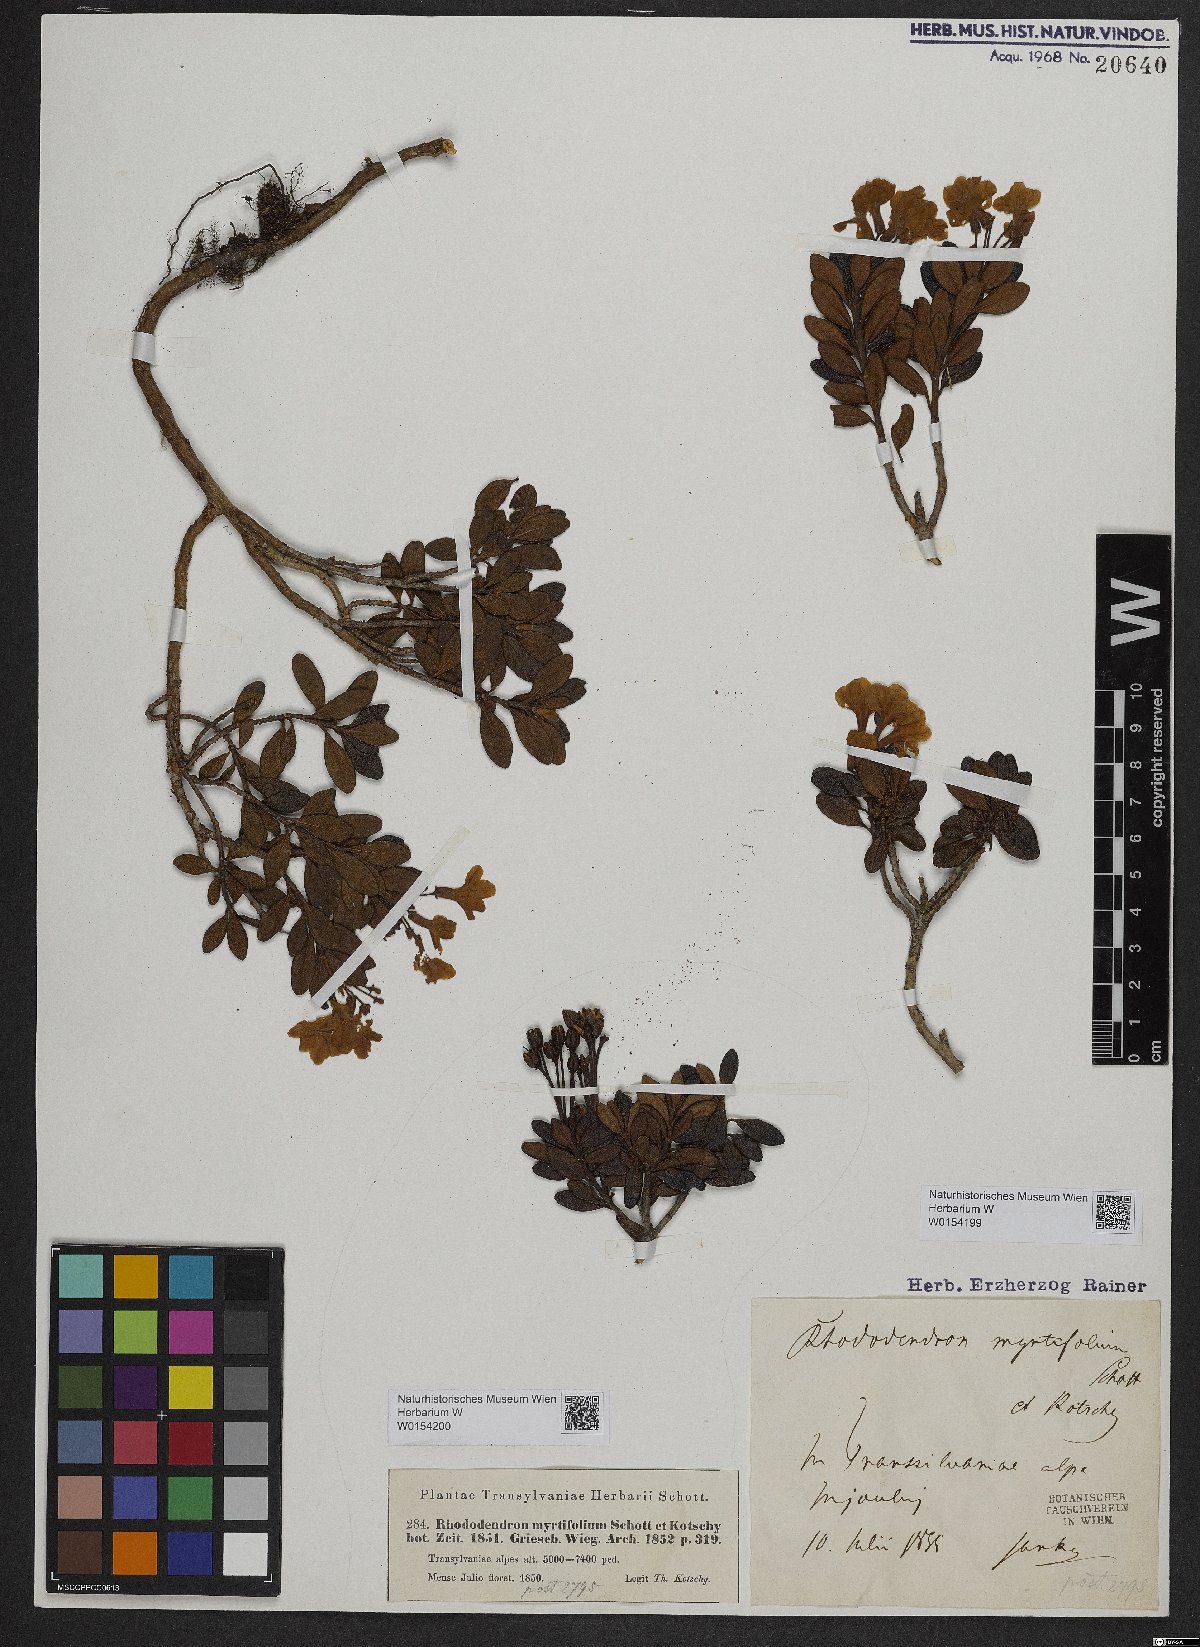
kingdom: Plantae
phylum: Tracheophyta
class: Magnoliopsida
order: Ericales
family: Ericaceae
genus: Rhododendron
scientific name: Rhododendron kotschyi
